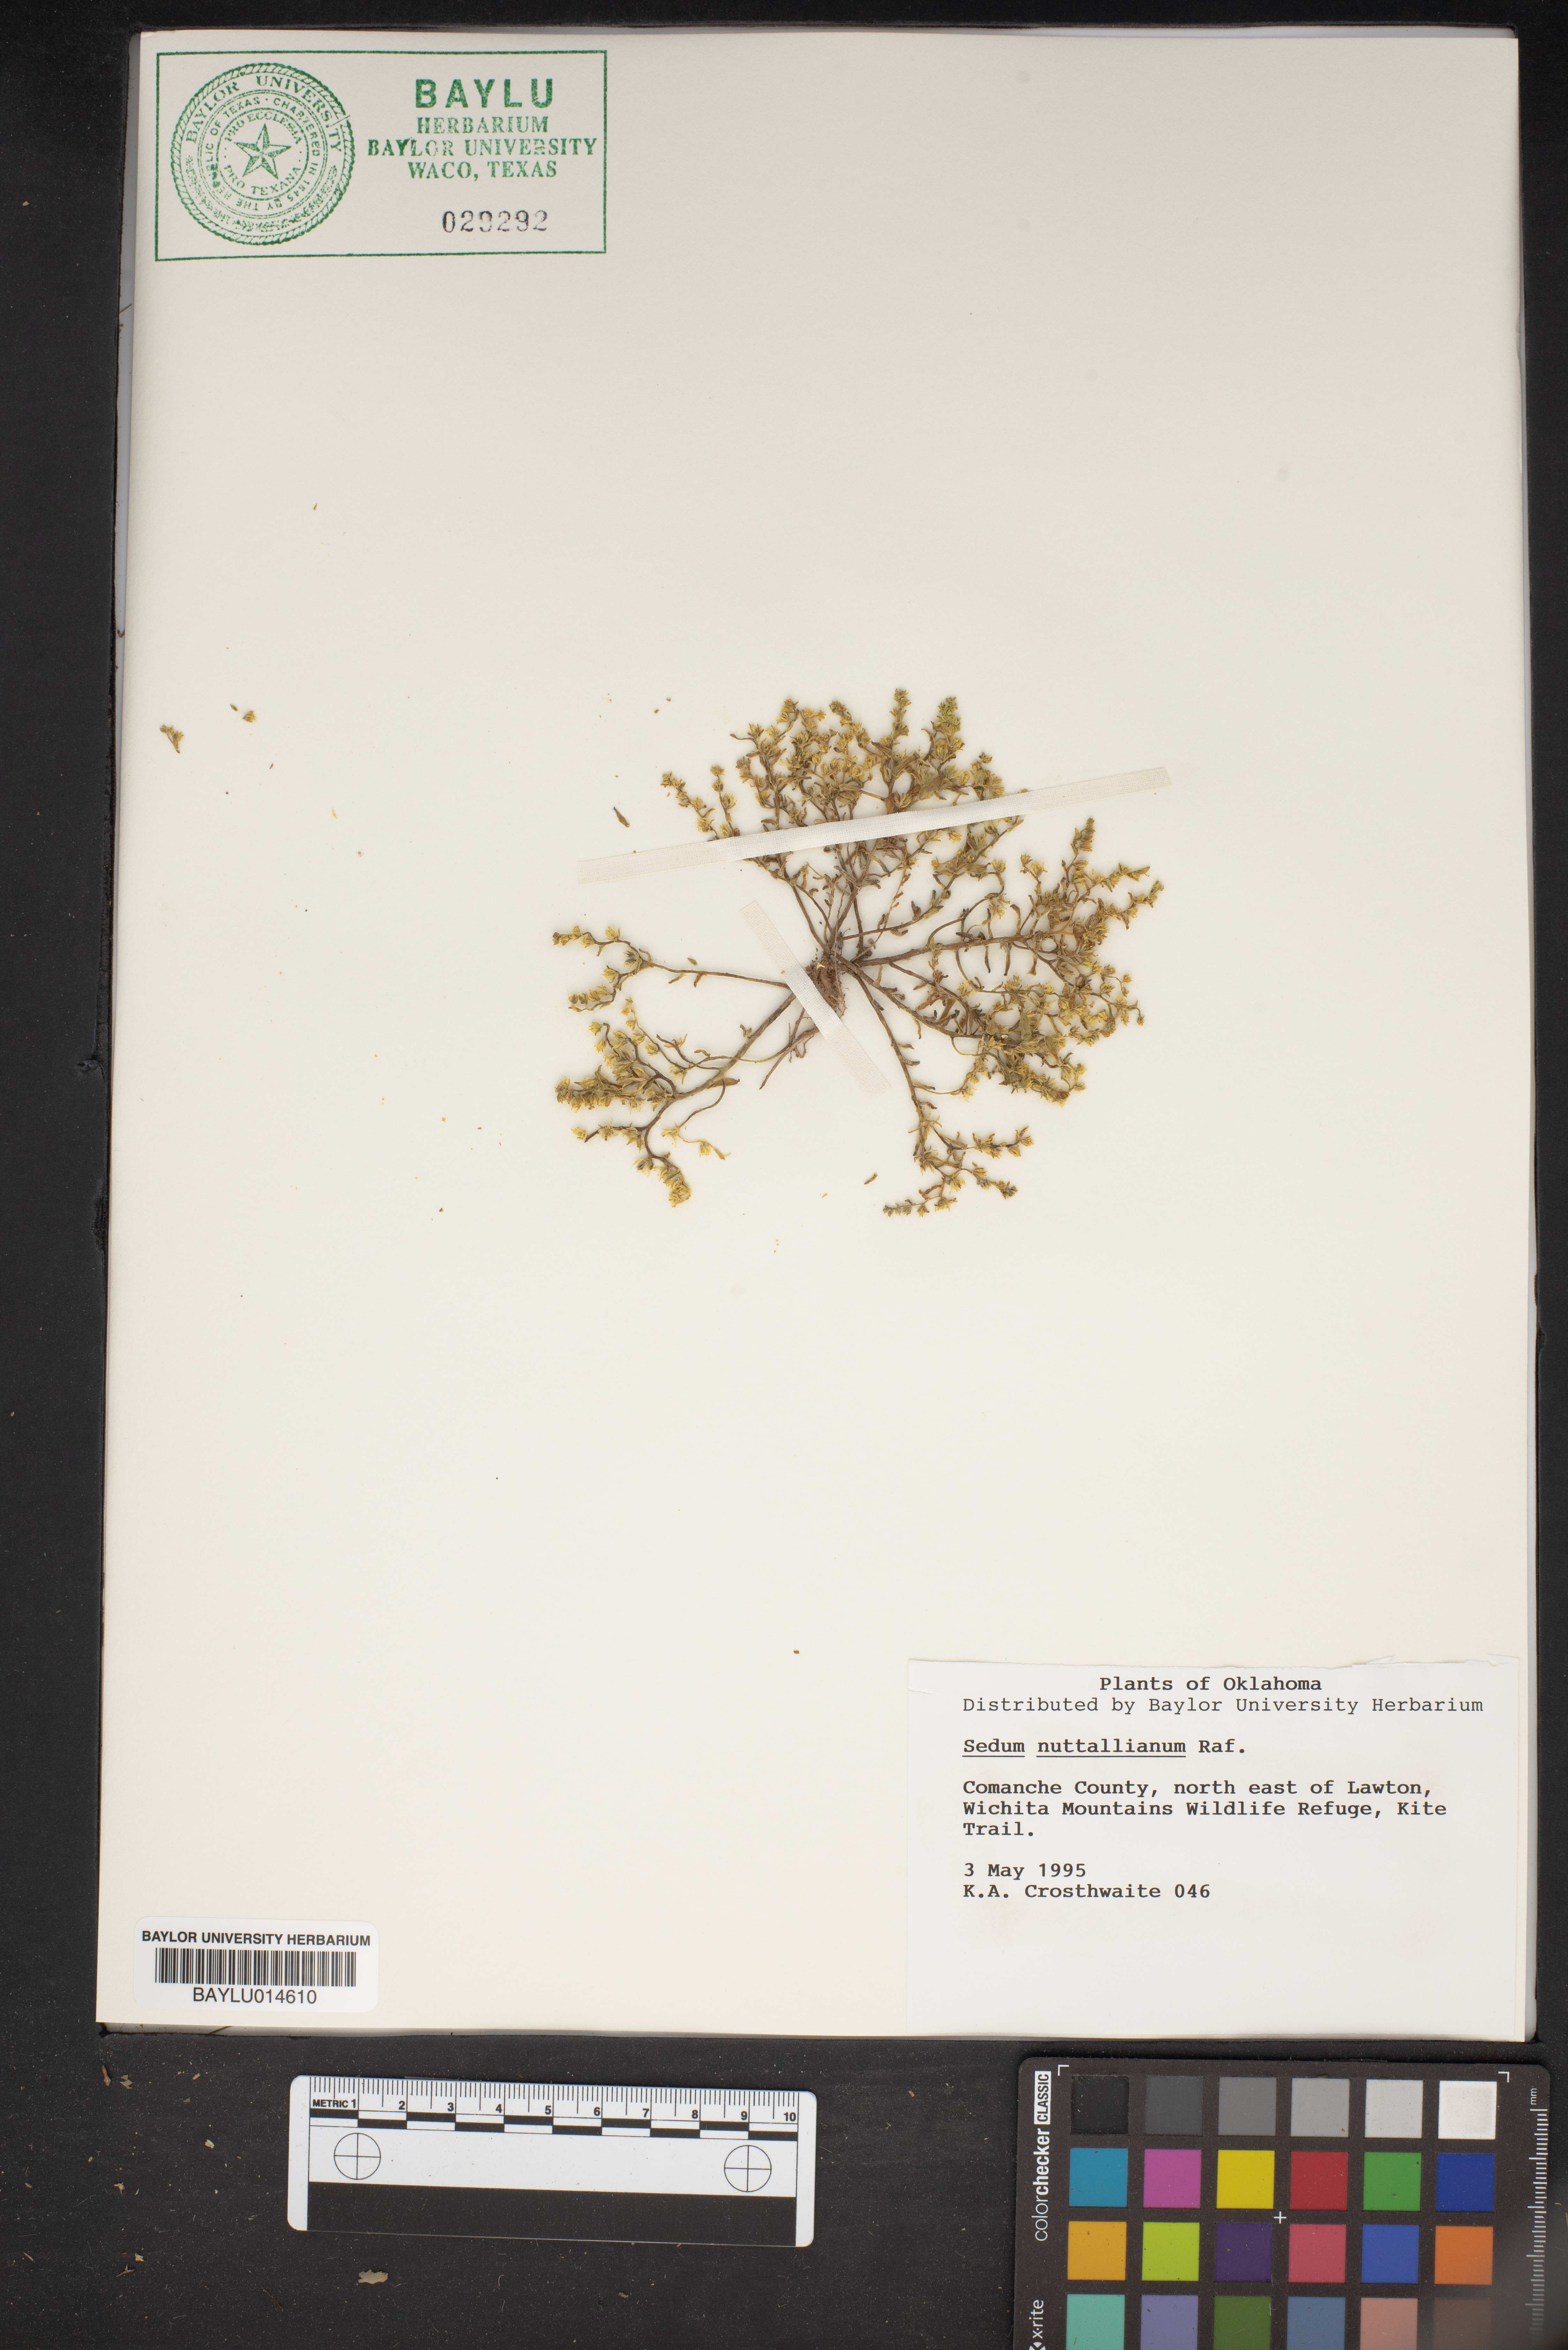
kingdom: Plantae
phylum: Tracheophyta
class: Magnoliopsida
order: Saxifragales
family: Crassulaceae
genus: Sedum
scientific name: Sedum nuttallii
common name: Yellow stonecrop
